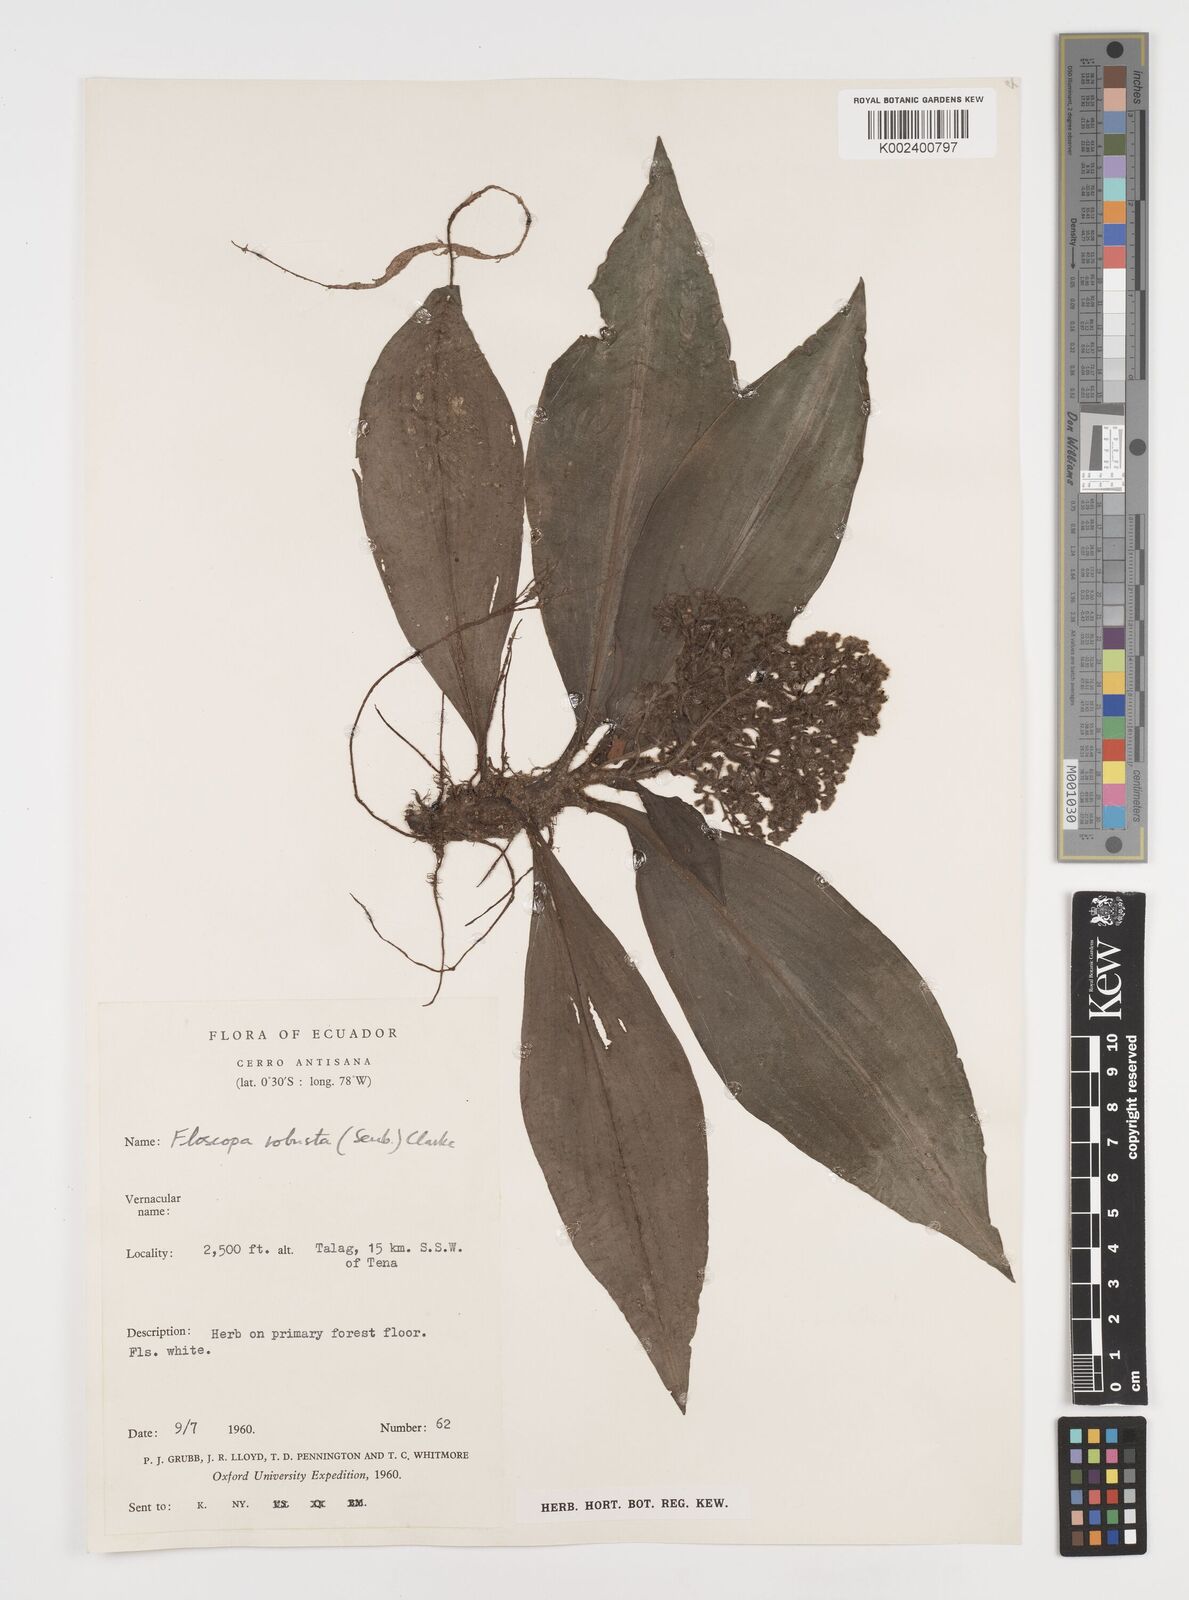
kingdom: Plantae
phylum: Tracheophyta
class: Liliopsida
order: Commelinales
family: Commelinaceae
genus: Floscopa
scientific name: Floscopa robusta
